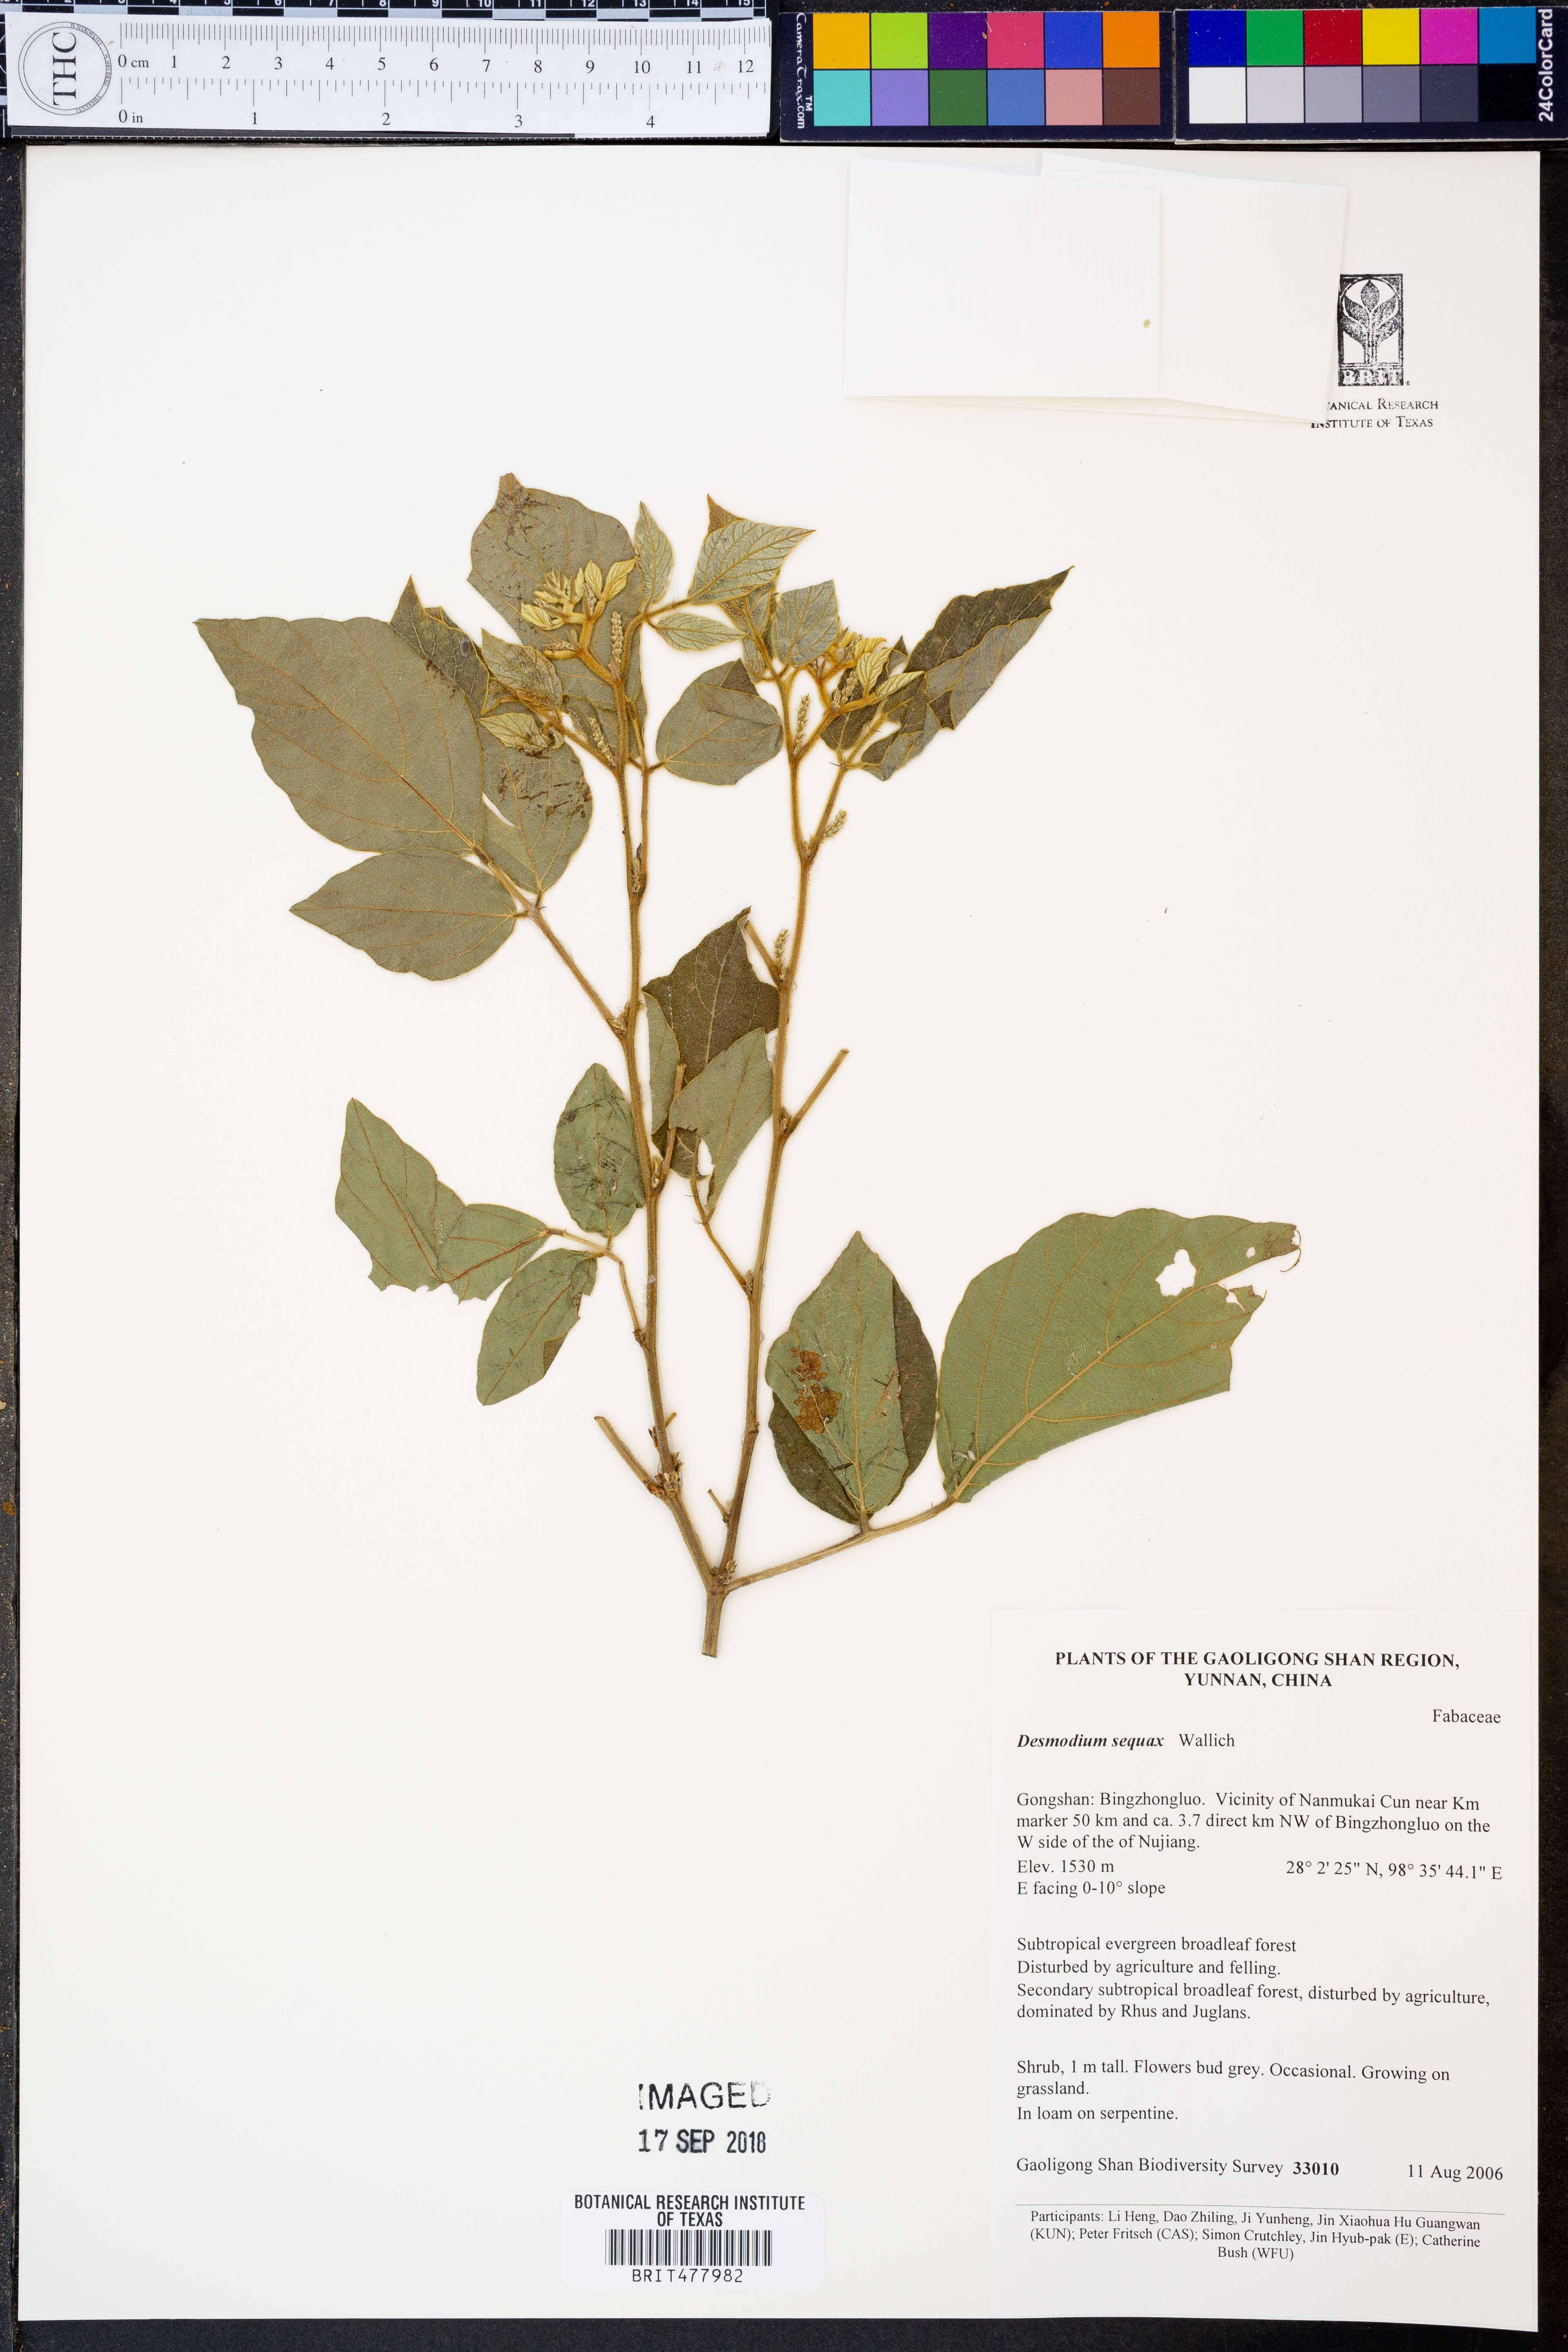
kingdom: Plantae
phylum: Tracheophyta
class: Magnoliopsida
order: Fabales
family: Fabaceae
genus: Puhuaea
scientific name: Puhuaea sequax
